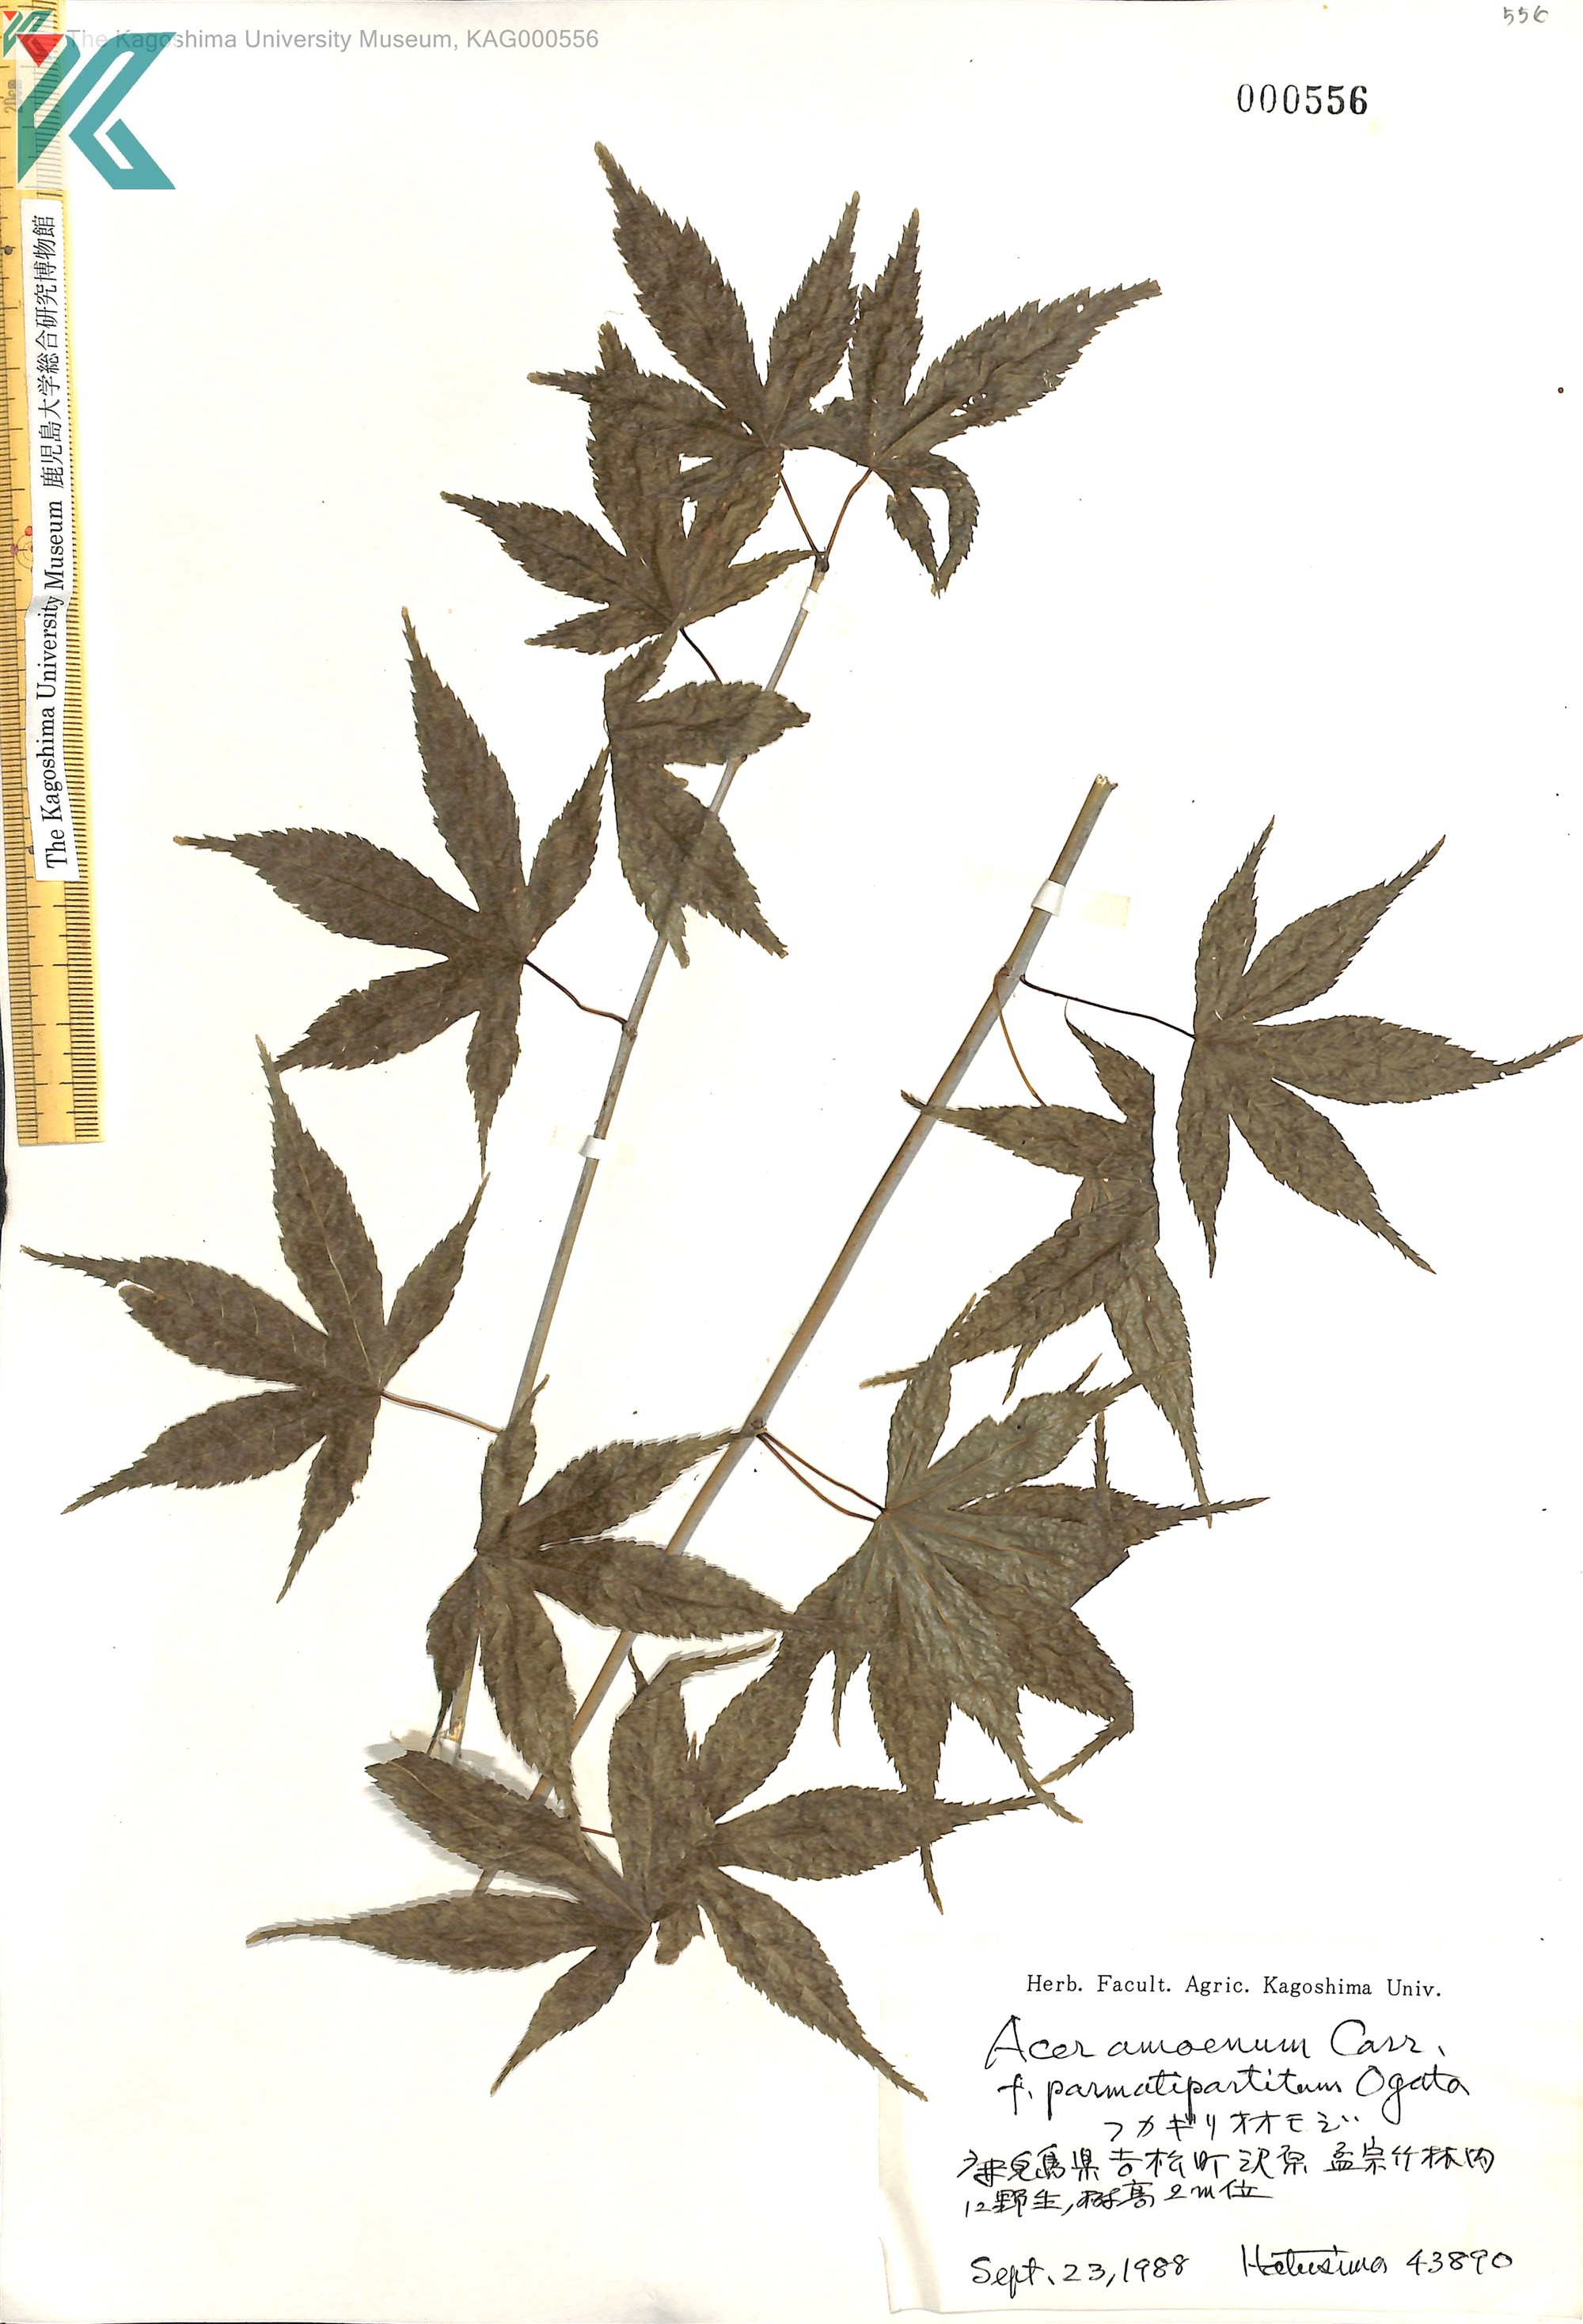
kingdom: Plantae
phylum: Tracheophyta
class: Magnoliopsida
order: Sapindales
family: Sapindaceae
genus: Acer
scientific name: Acer palmatum
